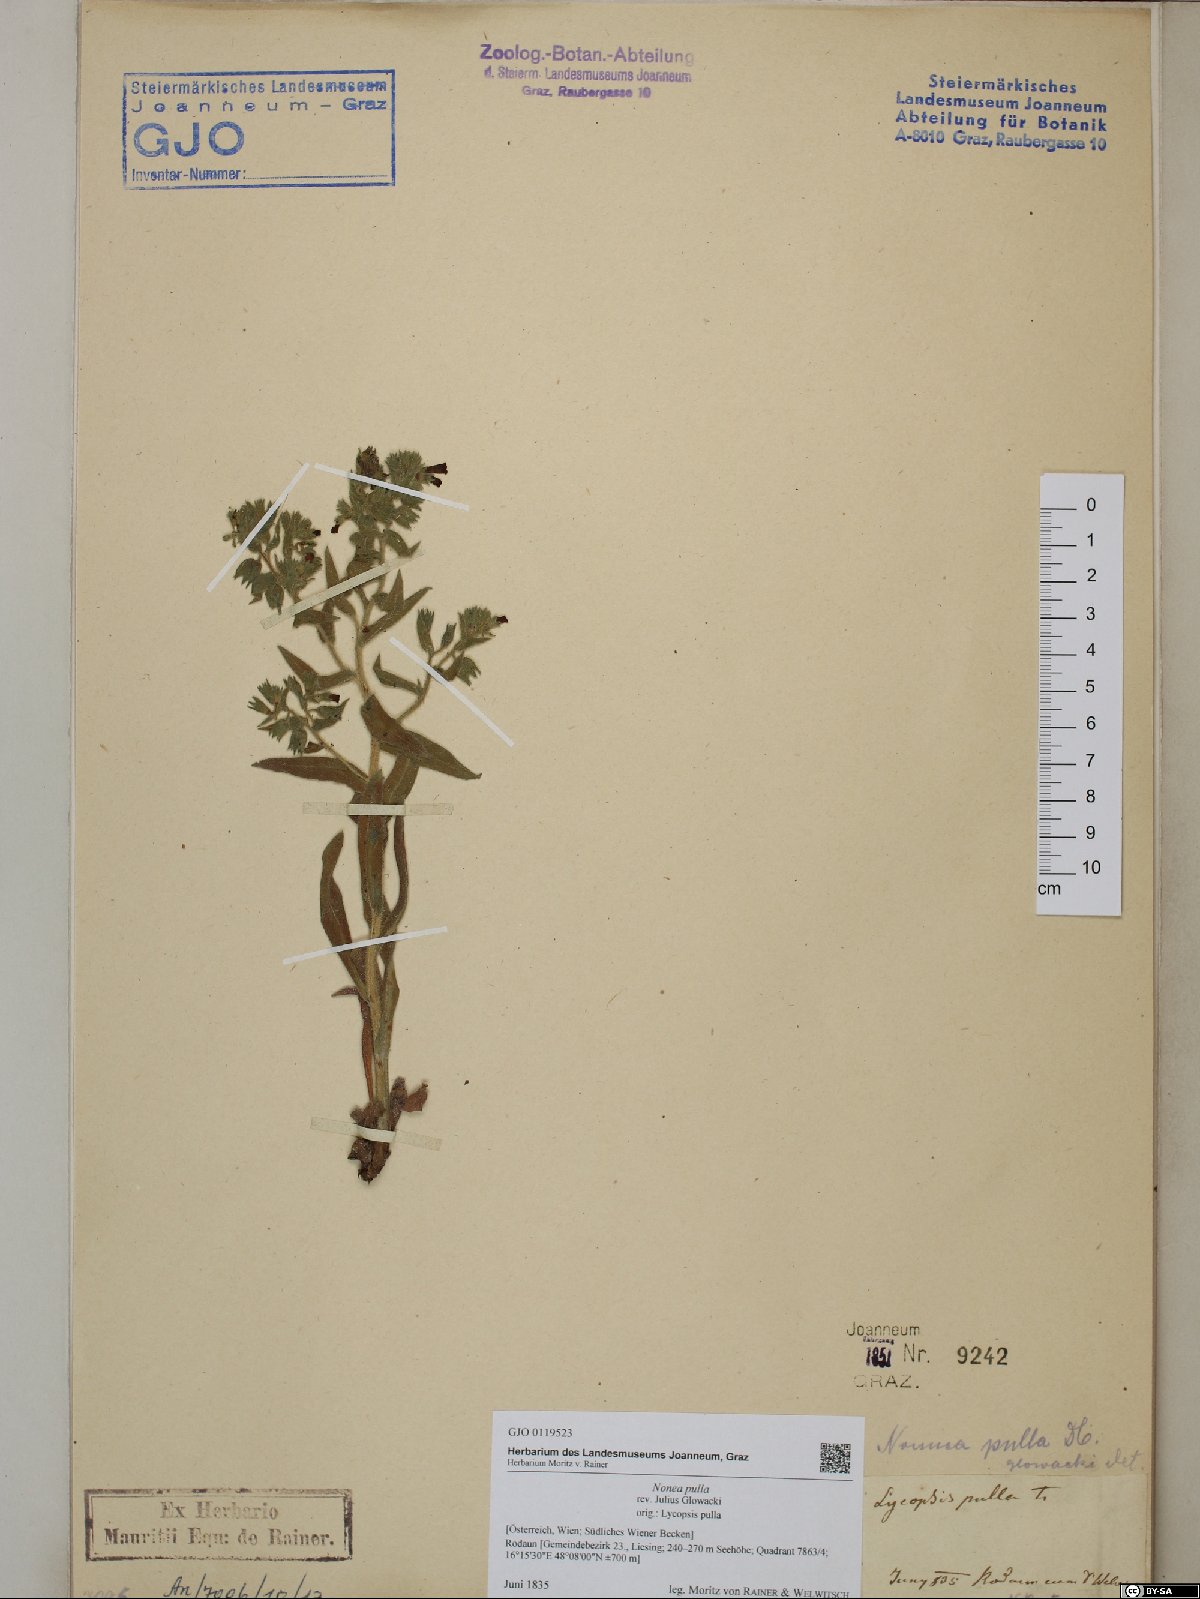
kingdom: Plantae
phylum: Tracheophyta
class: Magnoliopsida
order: Boraginales
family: Boraginaceae
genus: Nonea
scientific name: Nonea pulla
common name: Brown nonea
